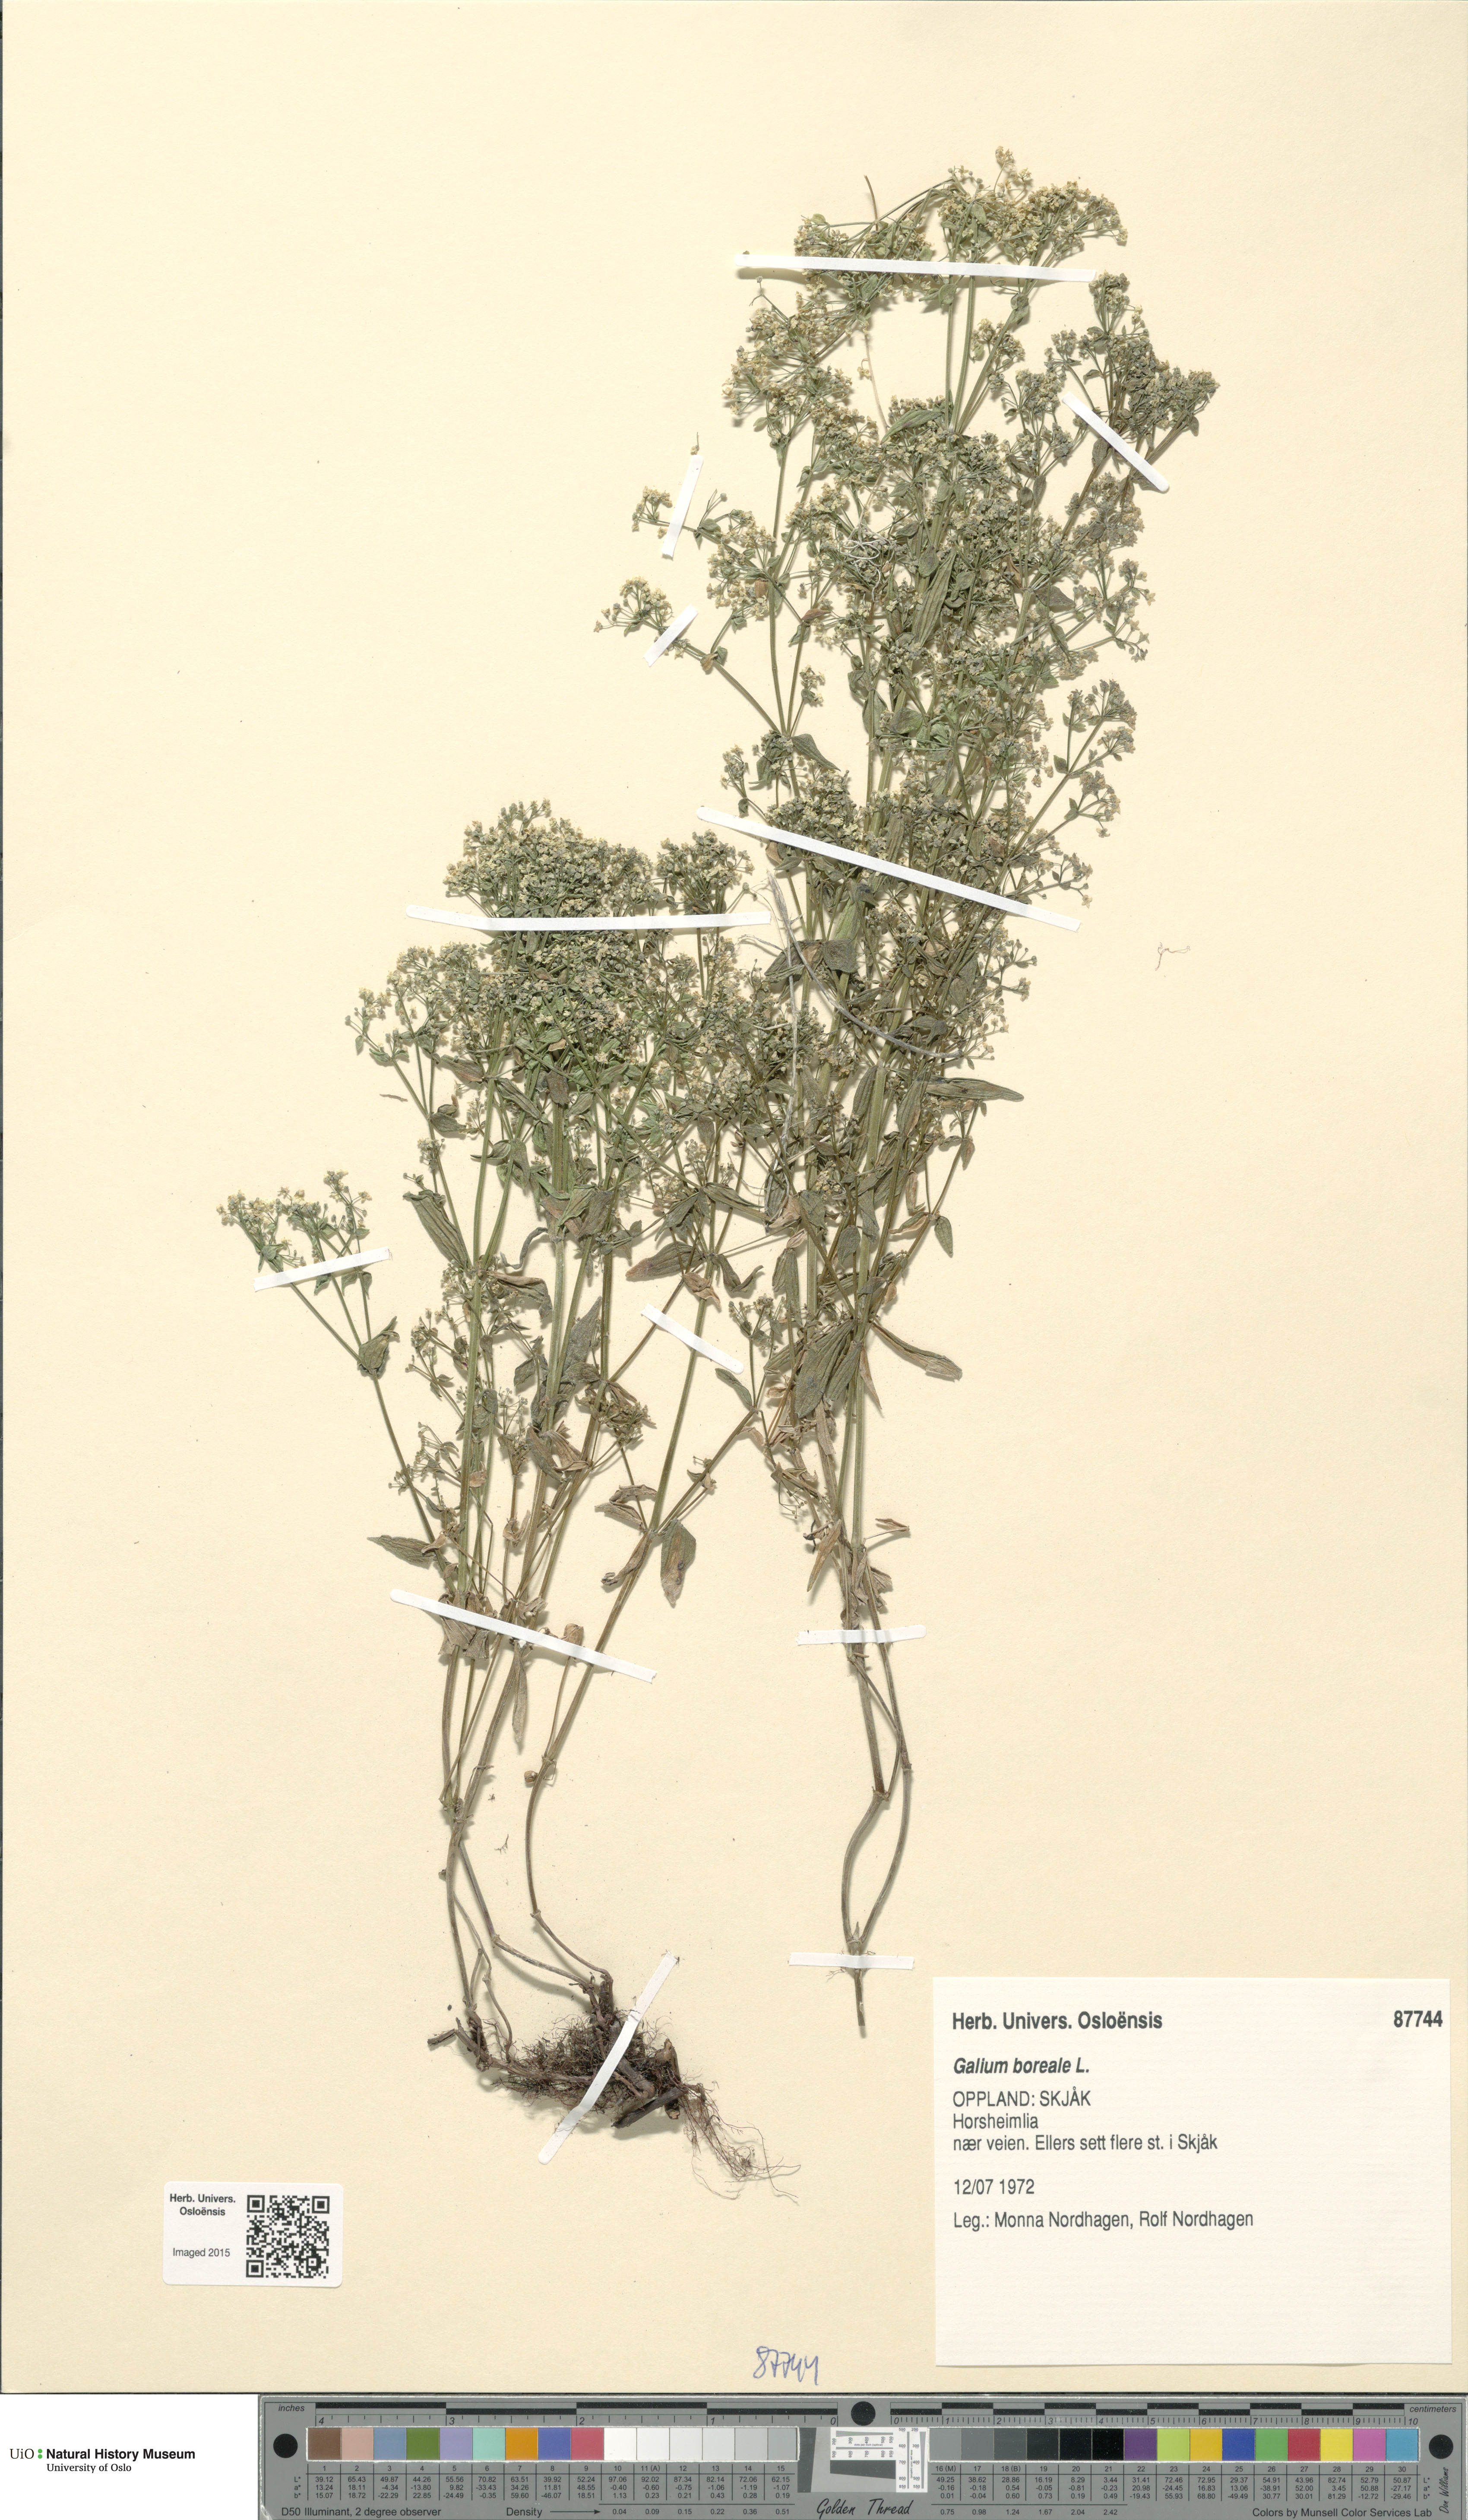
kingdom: Plantae
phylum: Tracheophyta
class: Magnoliopsida
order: Gentianales
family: Rubiaceae
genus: Galium
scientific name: Galium boreale
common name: Northern bedstraw
